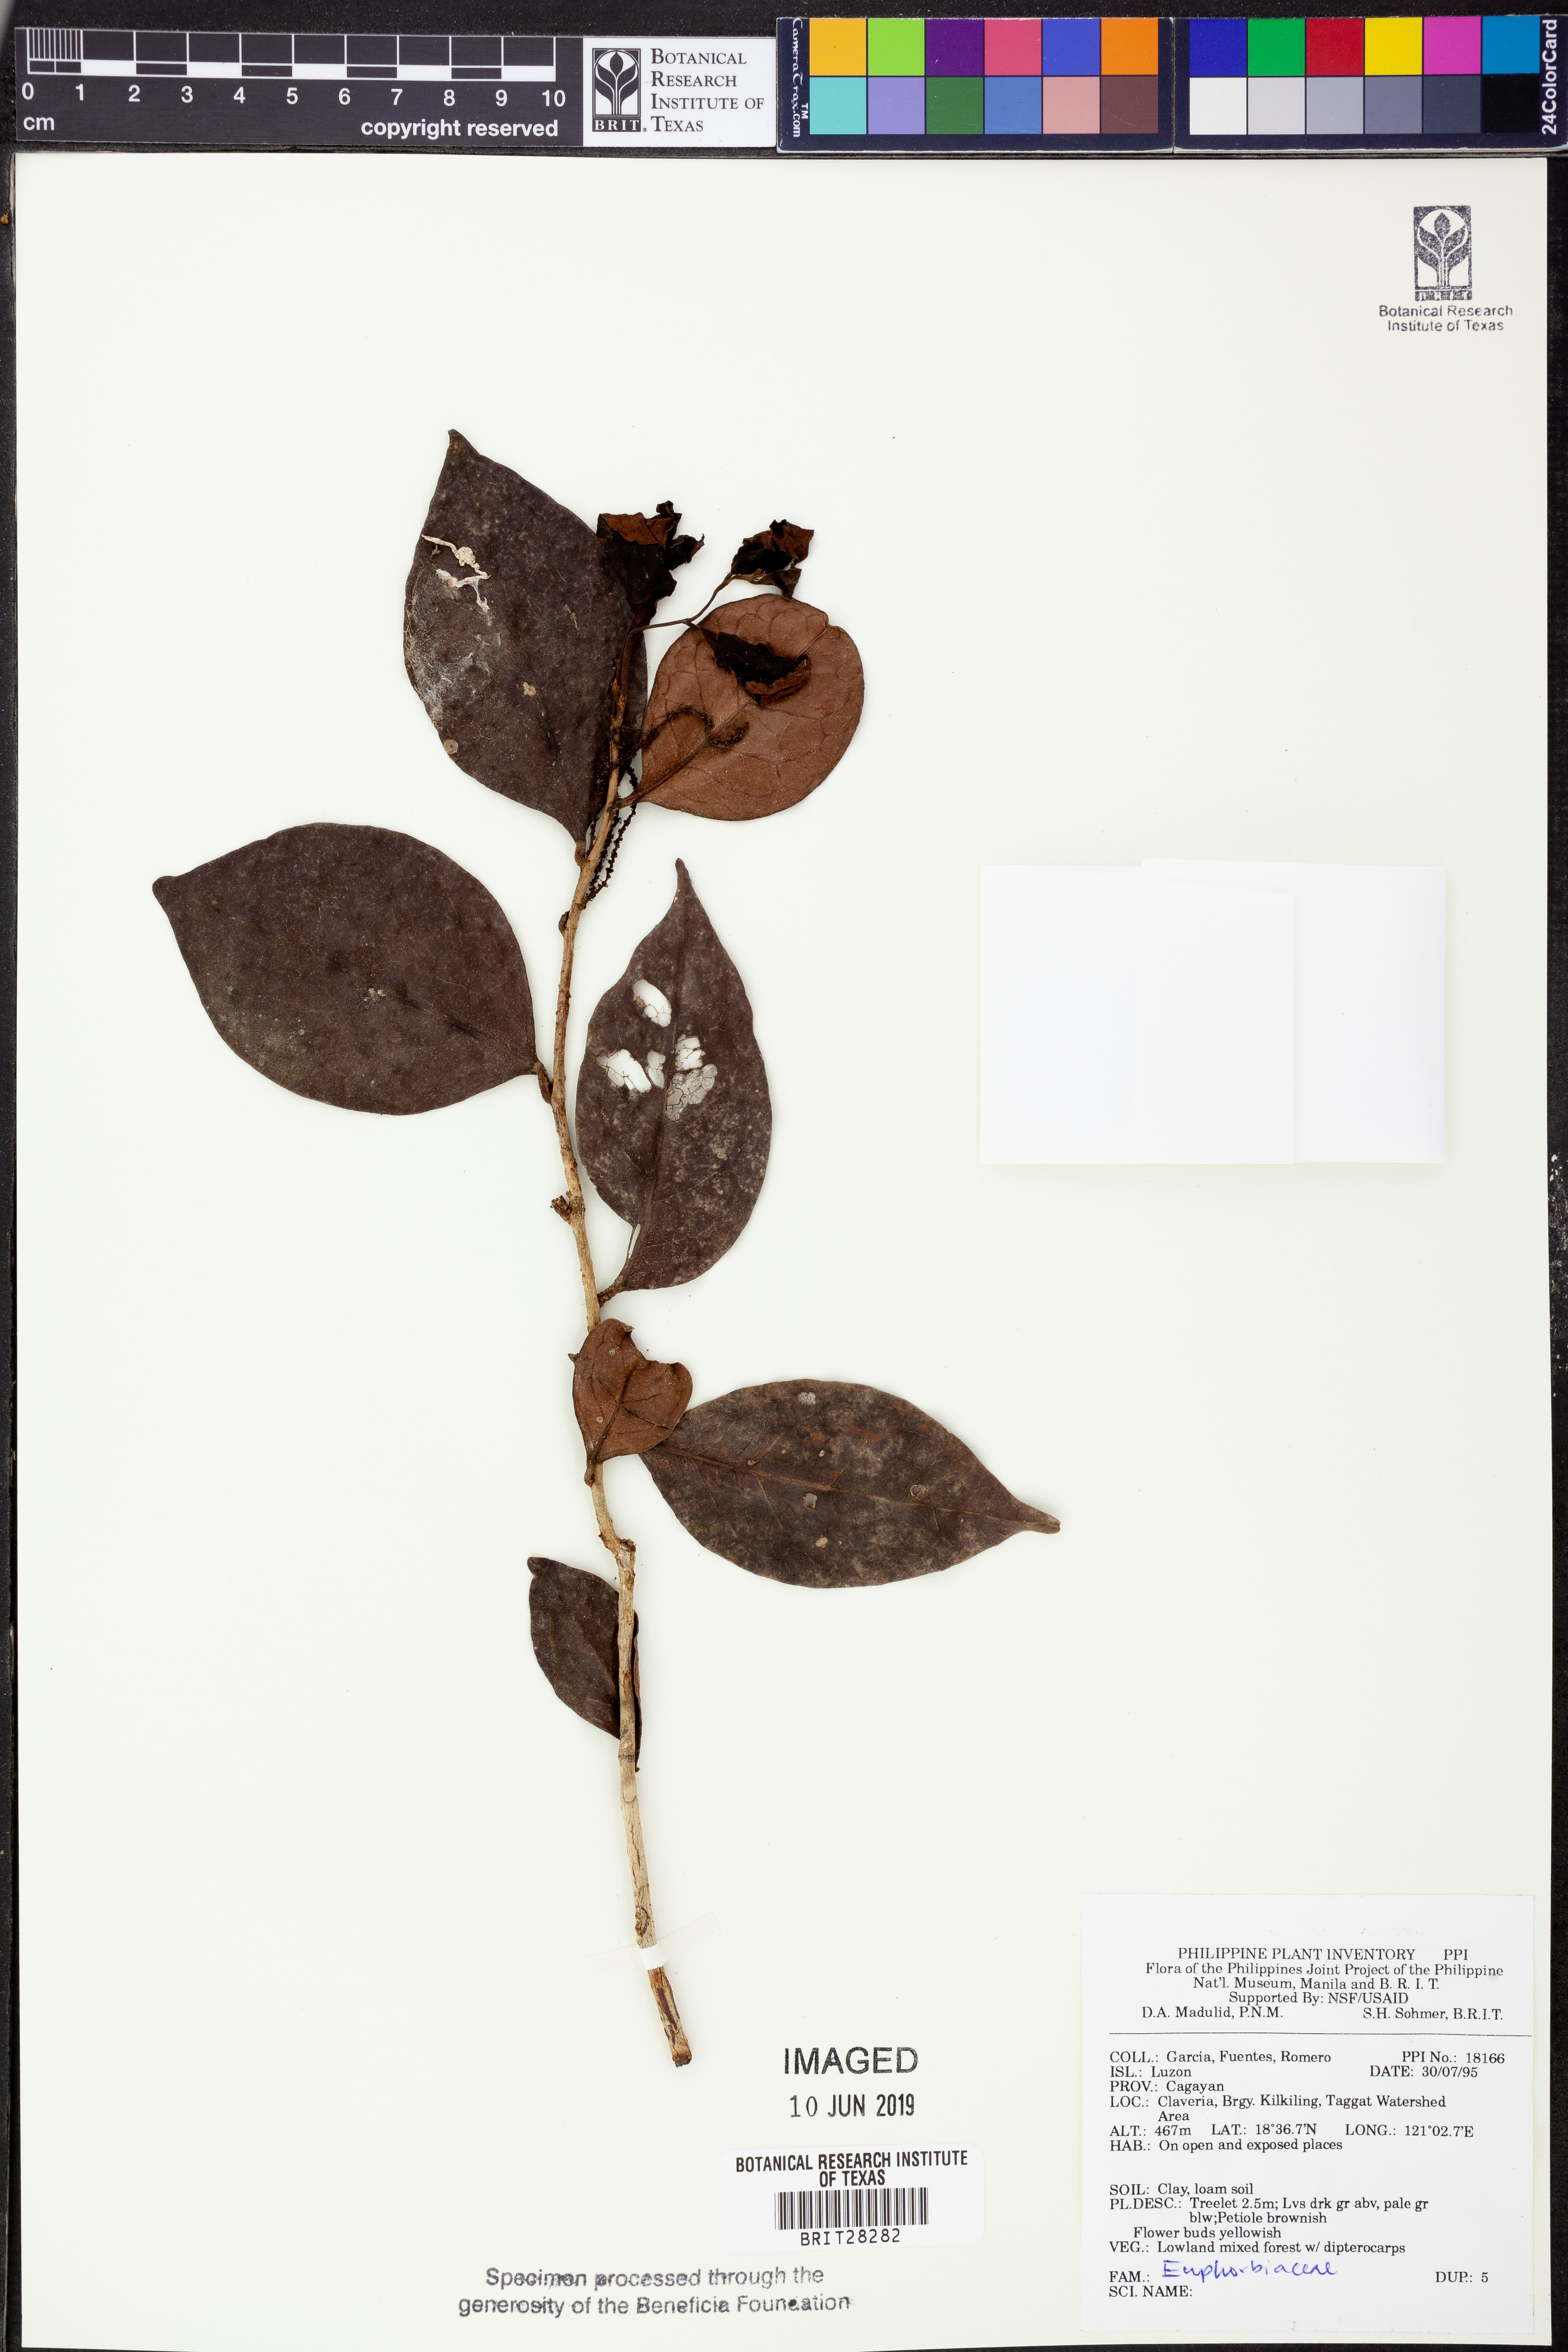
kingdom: Plantae
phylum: Tracheophyta
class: Magnoliopsida
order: Malpighiales
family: Euphorbiaceae
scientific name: Euphorbiaceae
